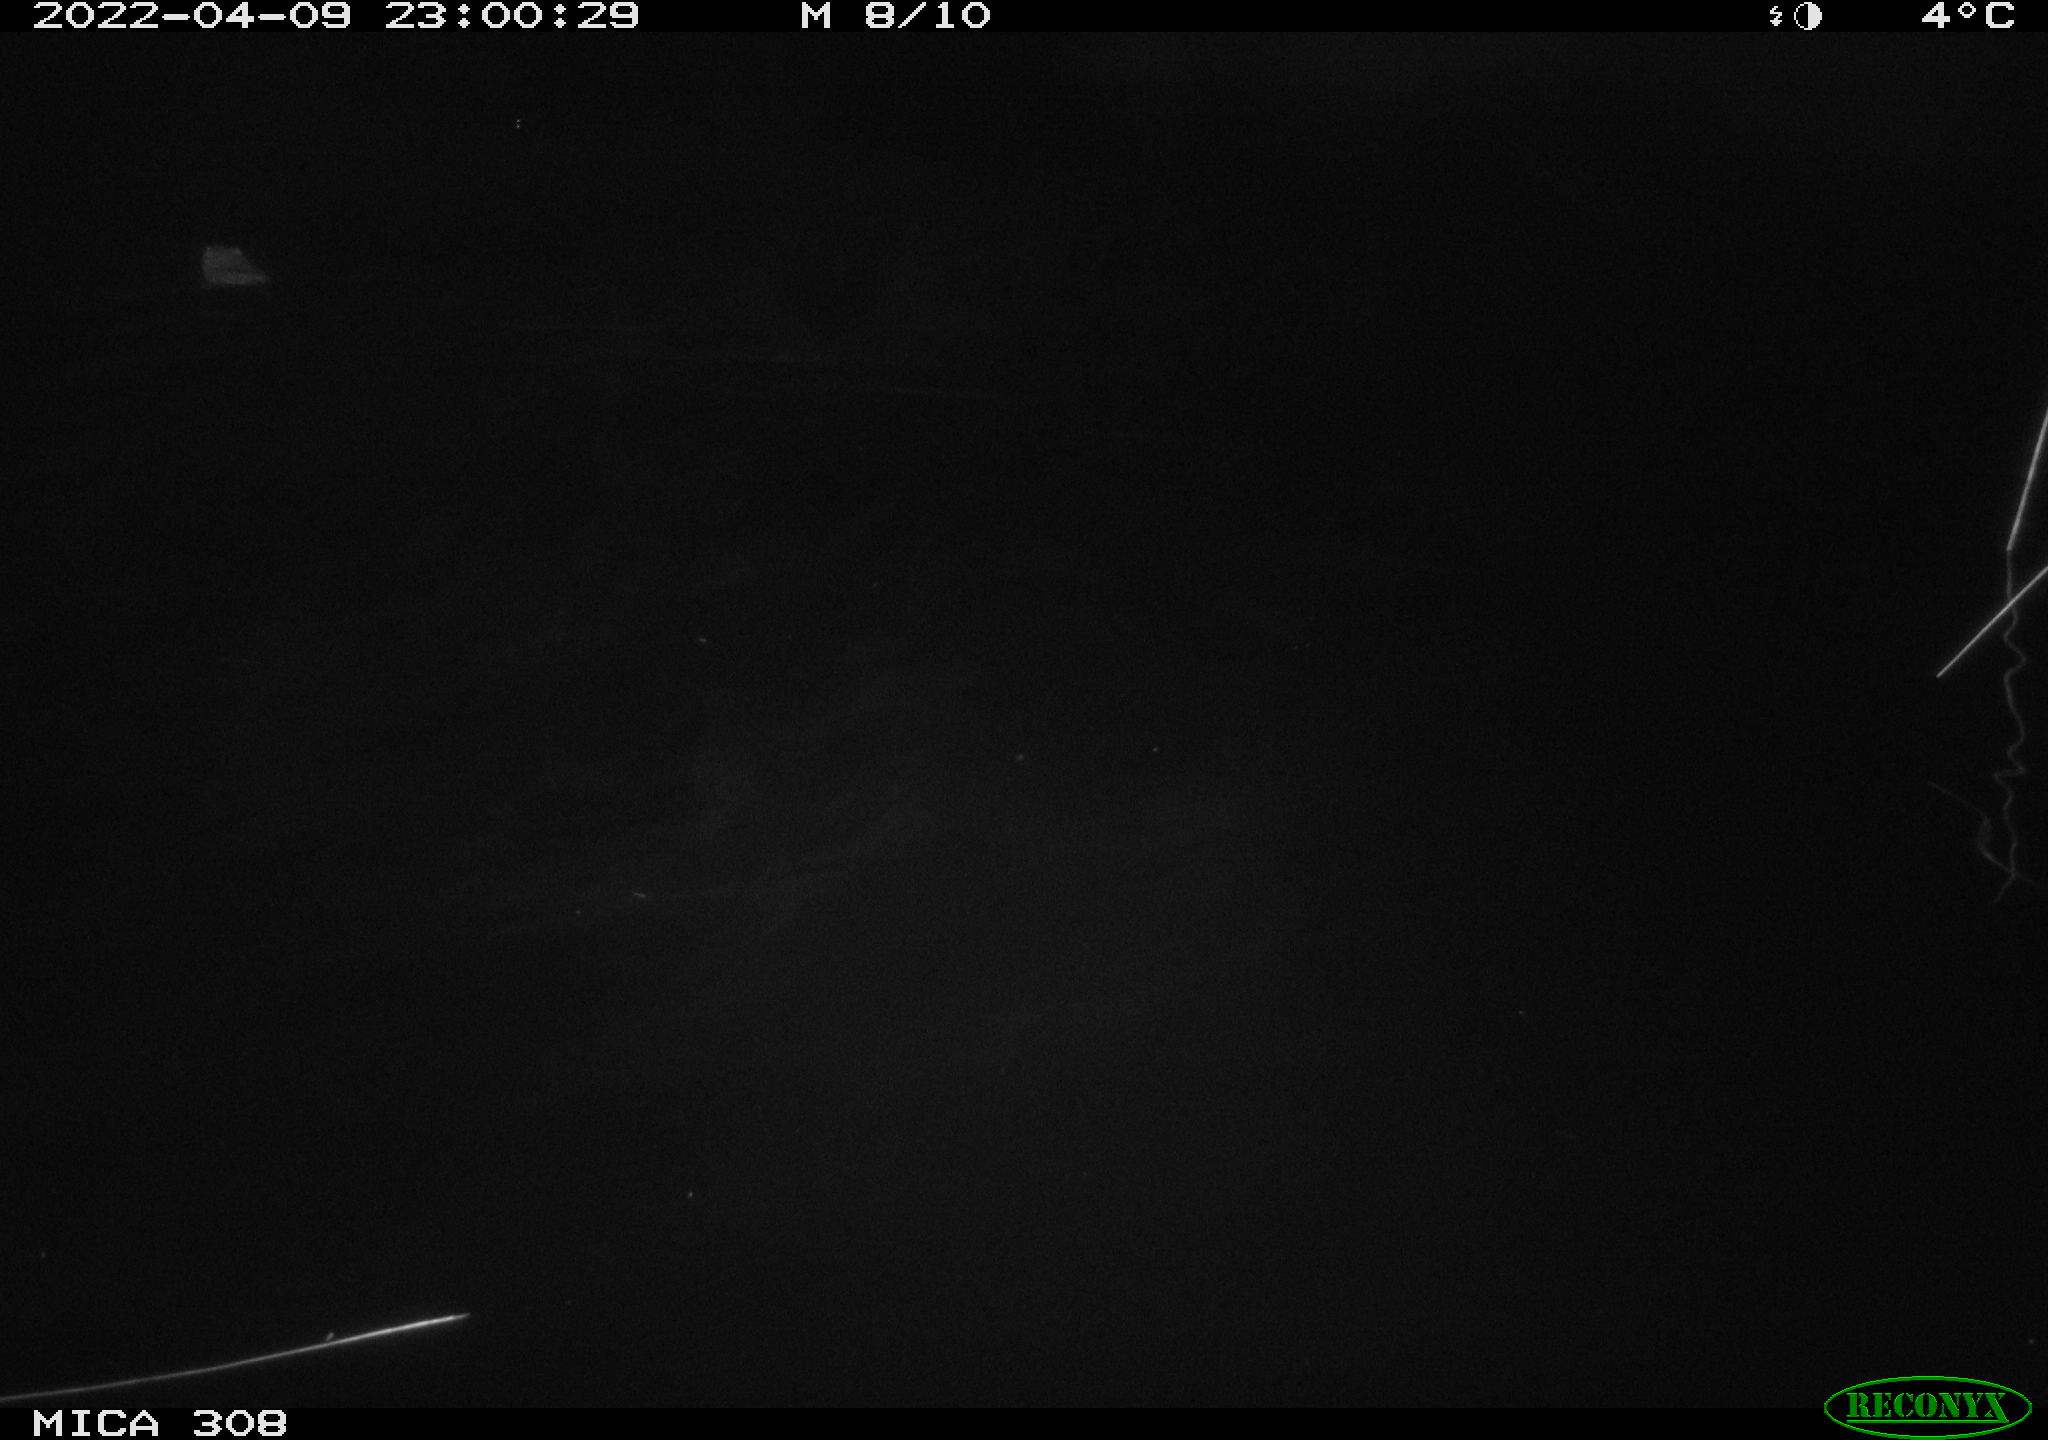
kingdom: Animalia
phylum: Chordata
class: Mammalia
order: Rodentia
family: Cricetidae
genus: Ondatra
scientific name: Ondatra zibethicus
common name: Muskrat
